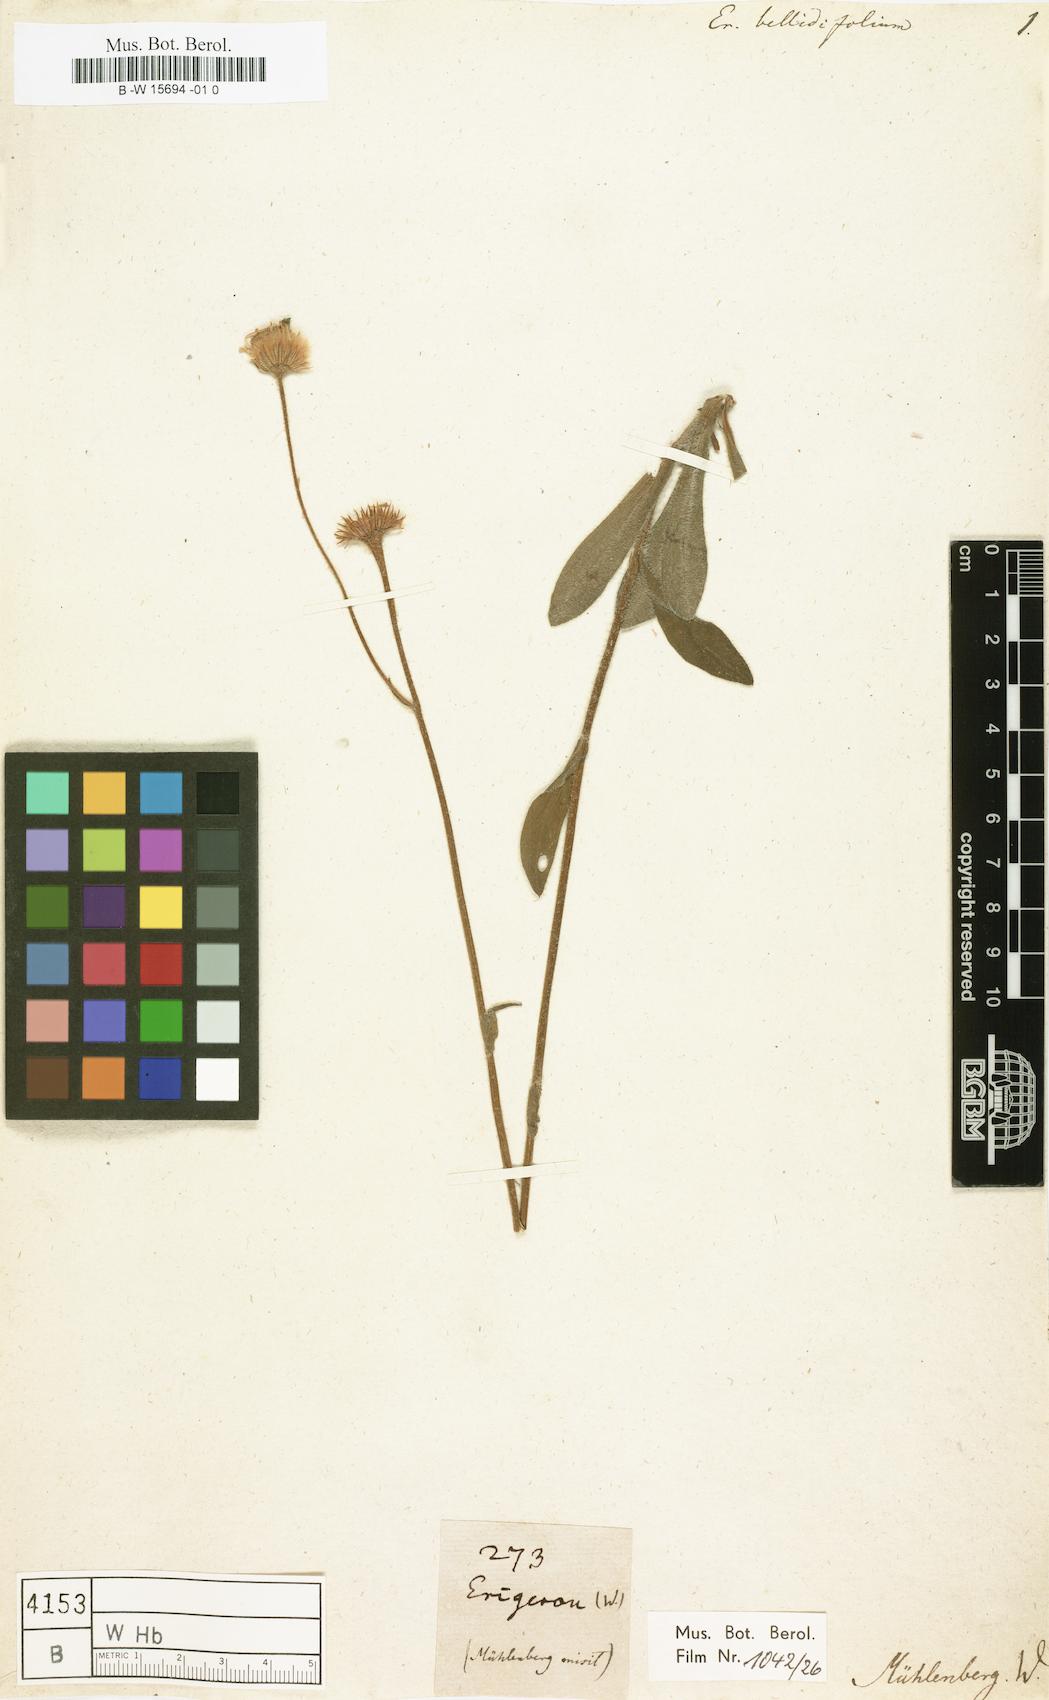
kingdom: Plantae
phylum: Tracheophyta
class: Magnoliopsida
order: Asterales
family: Asteraceae
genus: Erigeron
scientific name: Erigeron pulchellus
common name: Hairy fleabane
